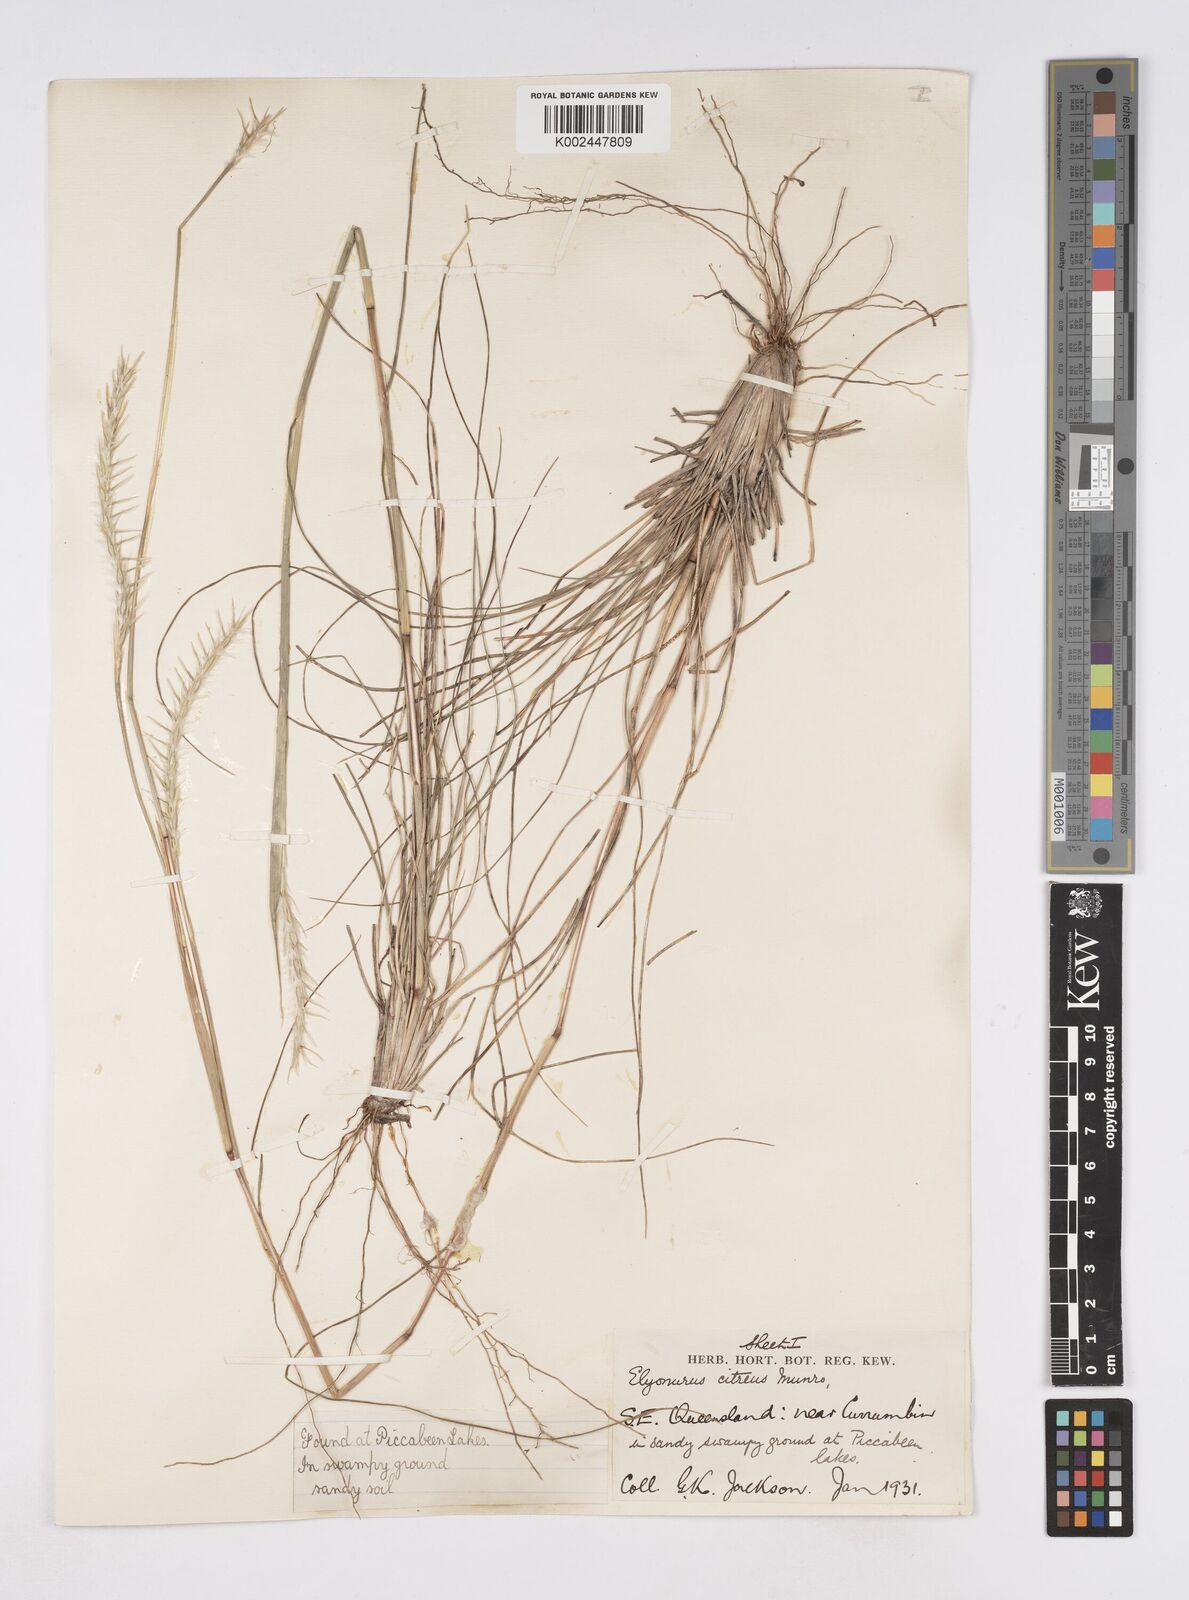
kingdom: Plantae
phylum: Tracheophyta
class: Liliopsida
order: Poales
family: Poaceae
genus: Elionurus
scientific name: Elionurus citreus
